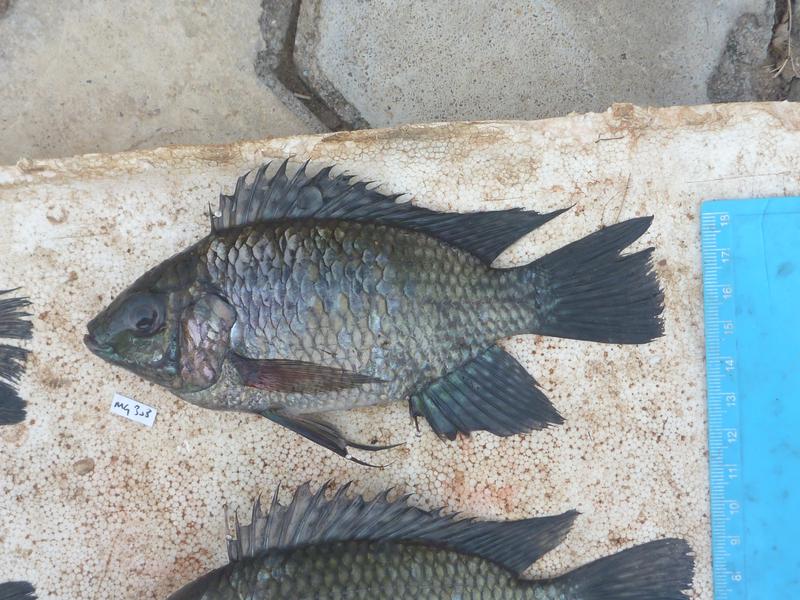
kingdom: Animalia
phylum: Chordata
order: Perciformes
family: Cichlidae
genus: Oreochromis
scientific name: Oreochromis leucostictus
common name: Blue spotted tilapia
